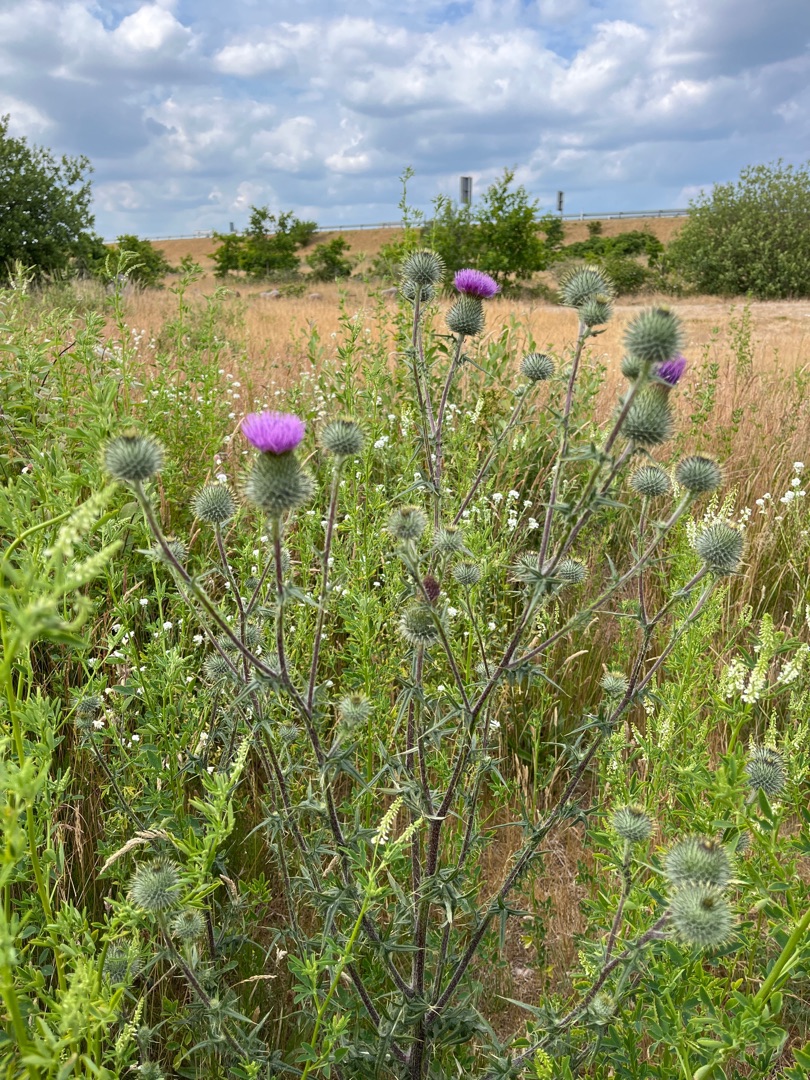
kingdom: Plantae
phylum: Tracheophyta
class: Magnoliopsida
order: Asterales
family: Asteraceae
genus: Cirsium
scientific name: Cirsium vulgare
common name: Horse-tidsel
